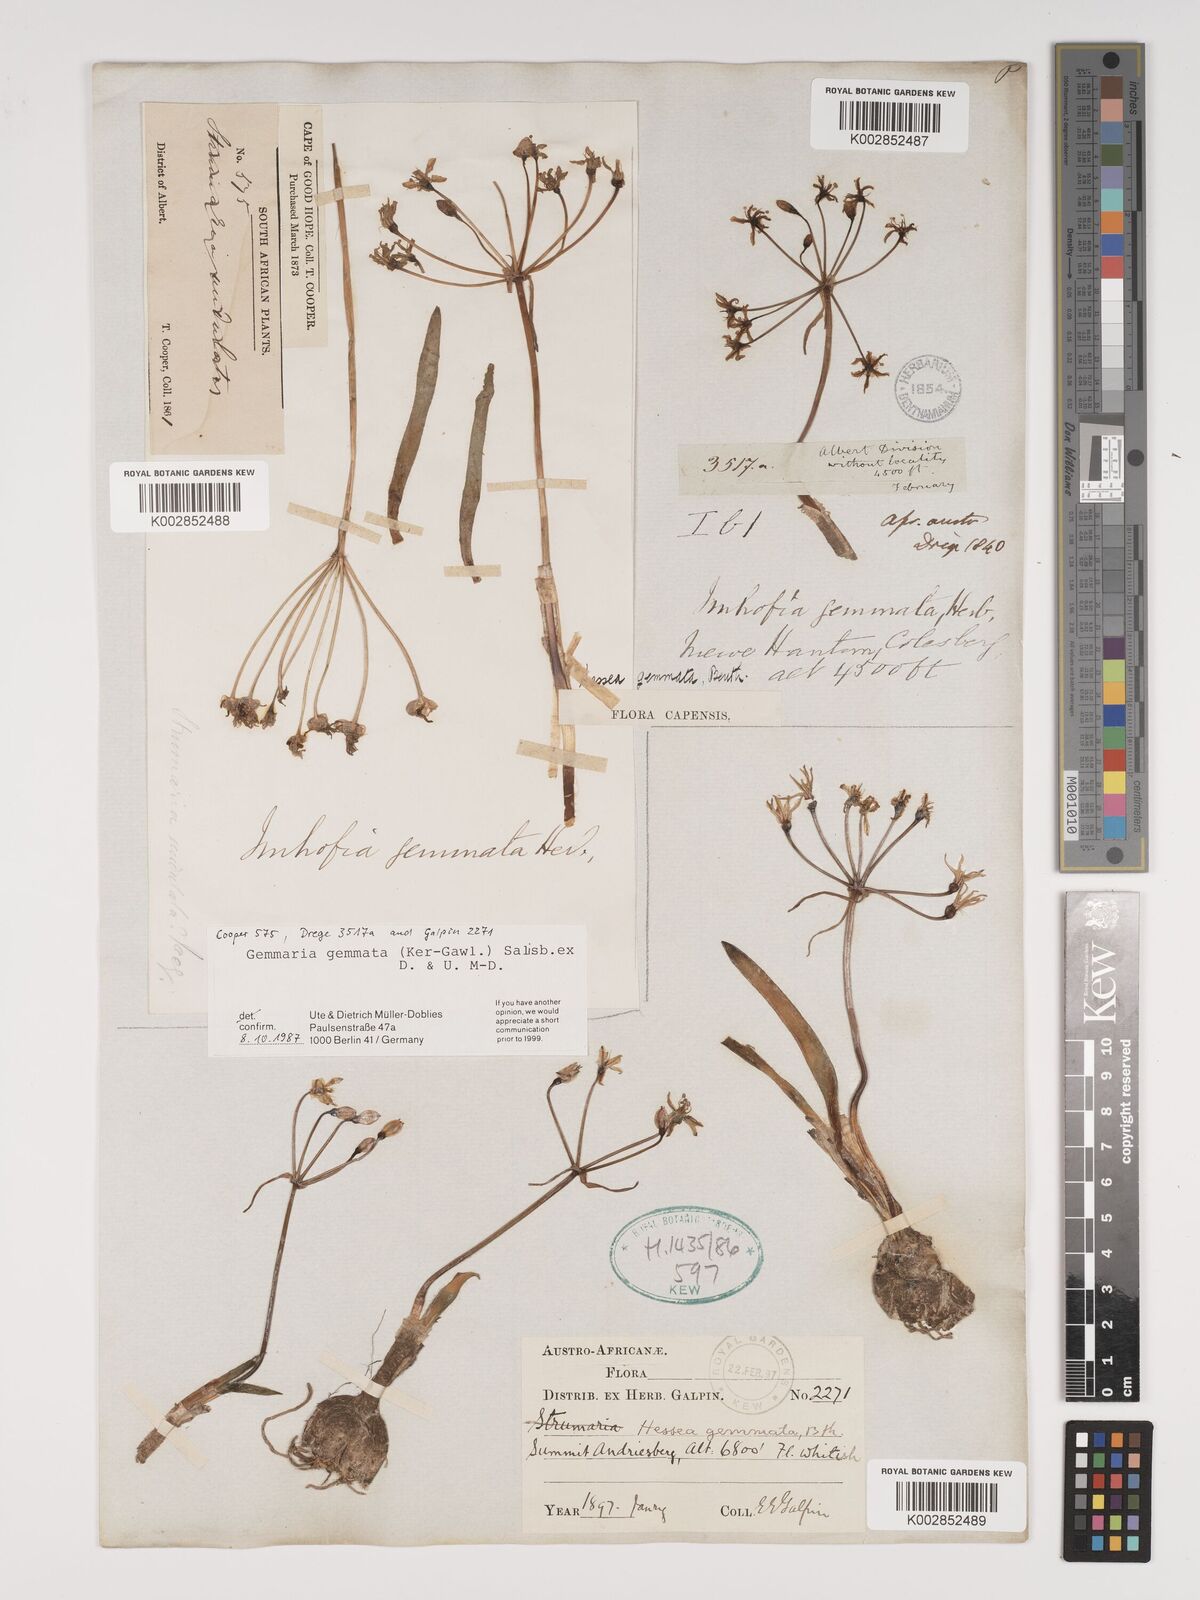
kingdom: Plantae
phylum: Tracheophyta
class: Liliopsida
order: Asparagales
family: Amaryllidaceae
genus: Strumaria
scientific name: Strumaria gemmata
